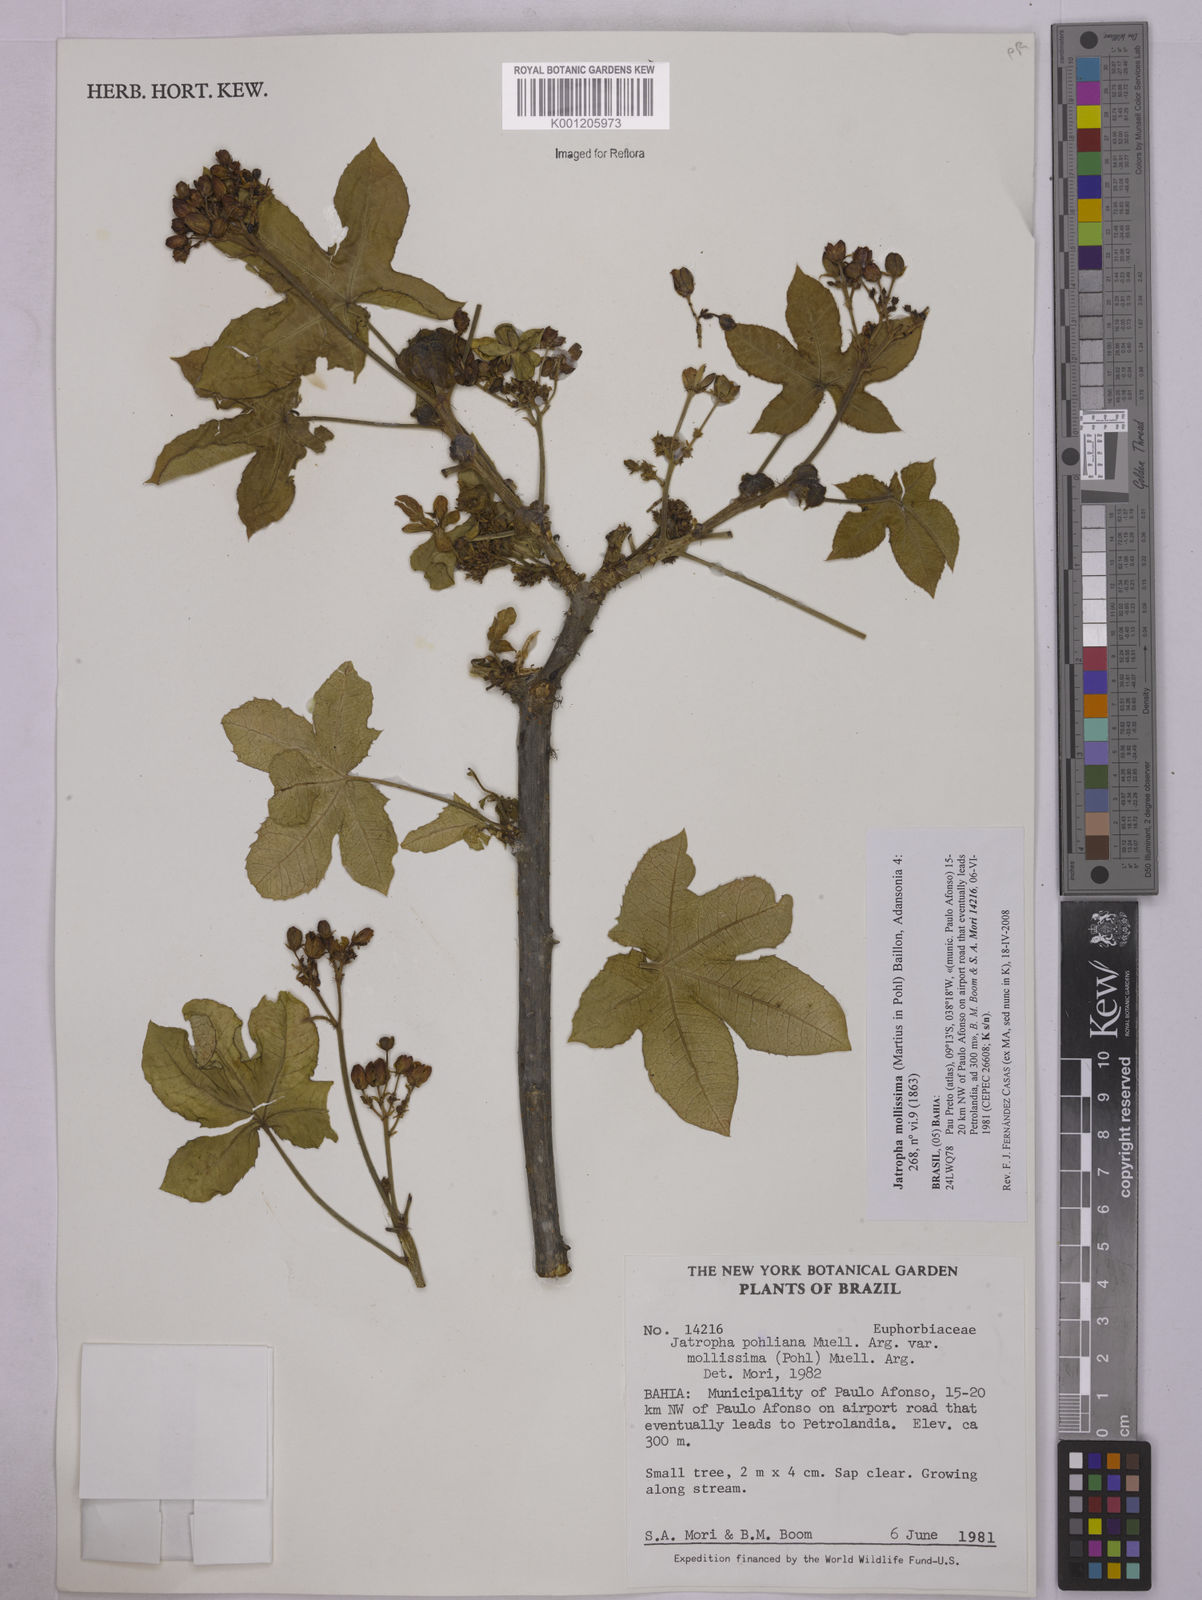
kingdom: Plantae
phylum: Tracheophyta
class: Magnoliopsida
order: Malpighiales
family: Euphorbiaceae
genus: Jatropha
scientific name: Jatropha mollissima
